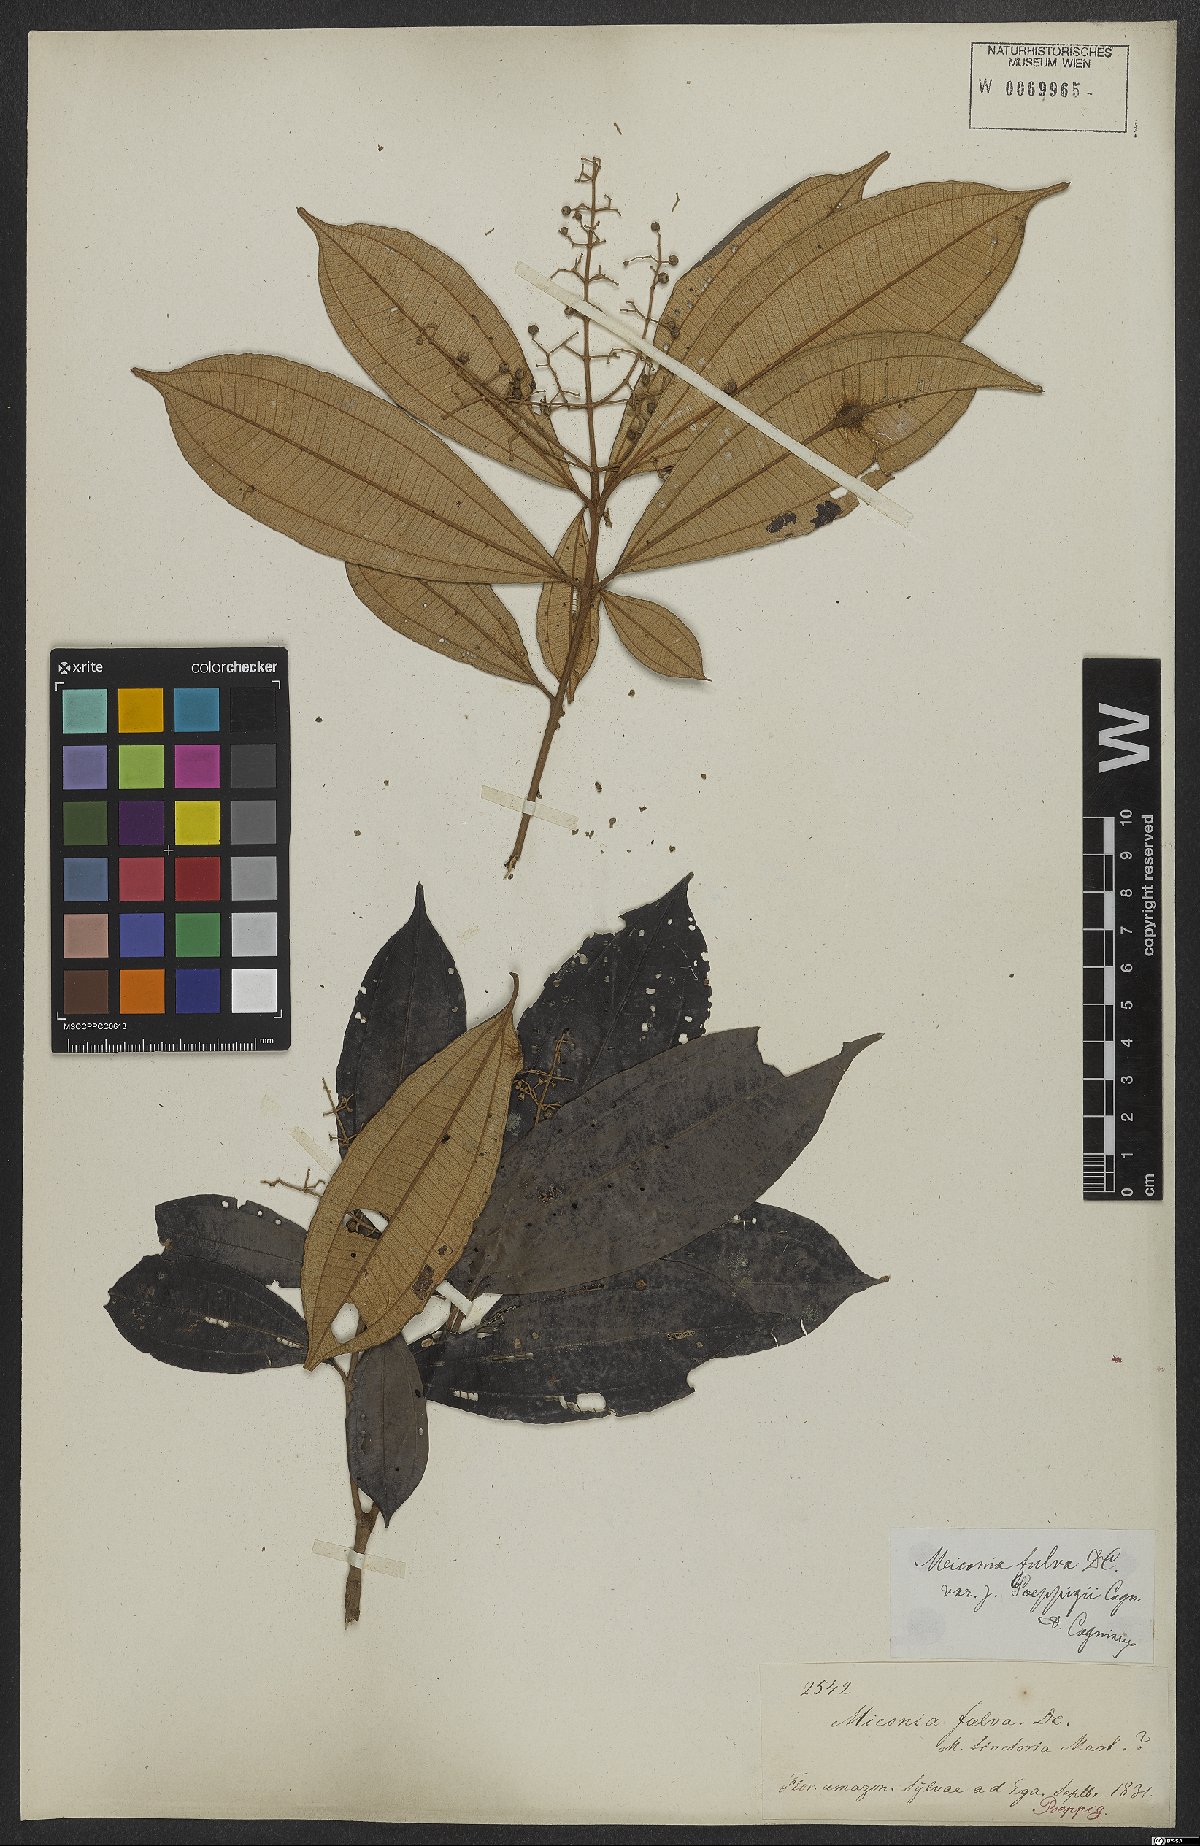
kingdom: Plantae
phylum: Tracheophyta
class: Magnoliopsida
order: Myrtales
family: Melastomataceae
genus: Miconia
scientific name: Miconia chrysophylla
